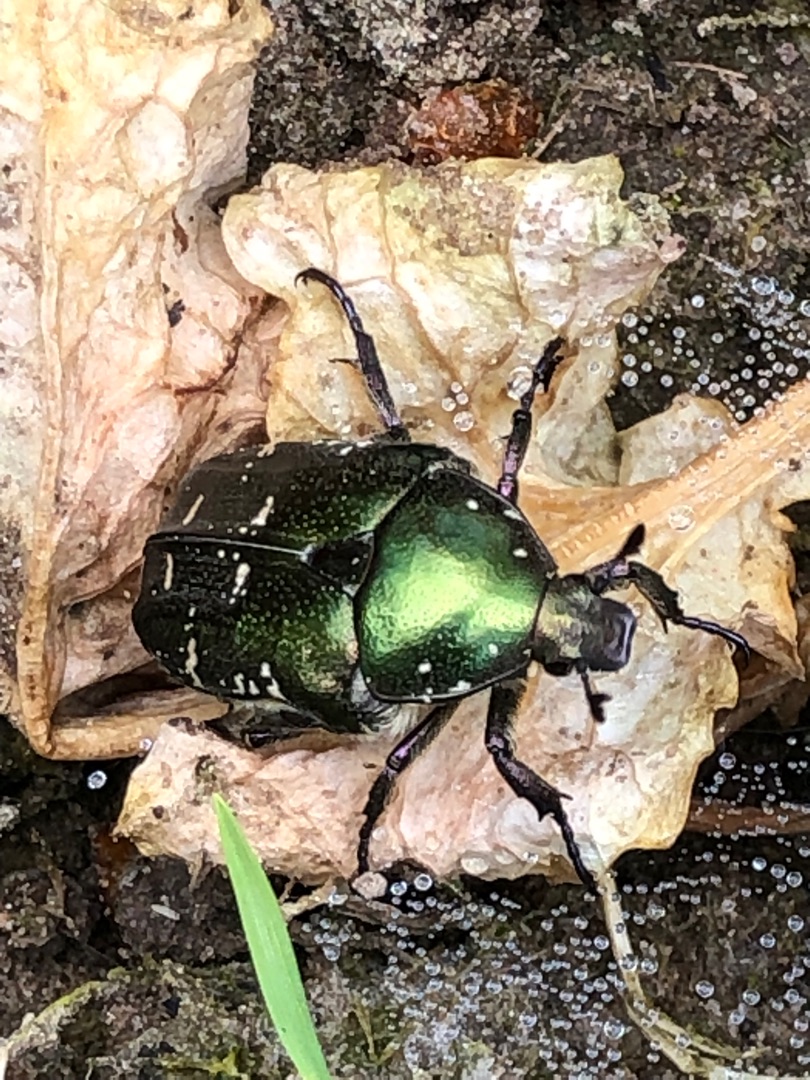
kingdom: Animalia
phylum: Arthropoda
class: Insecta
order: Coleoptera
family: Scarabaeidae
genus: Protaetia
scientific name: Protaetia cuprea
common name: Kobberguldbasse
